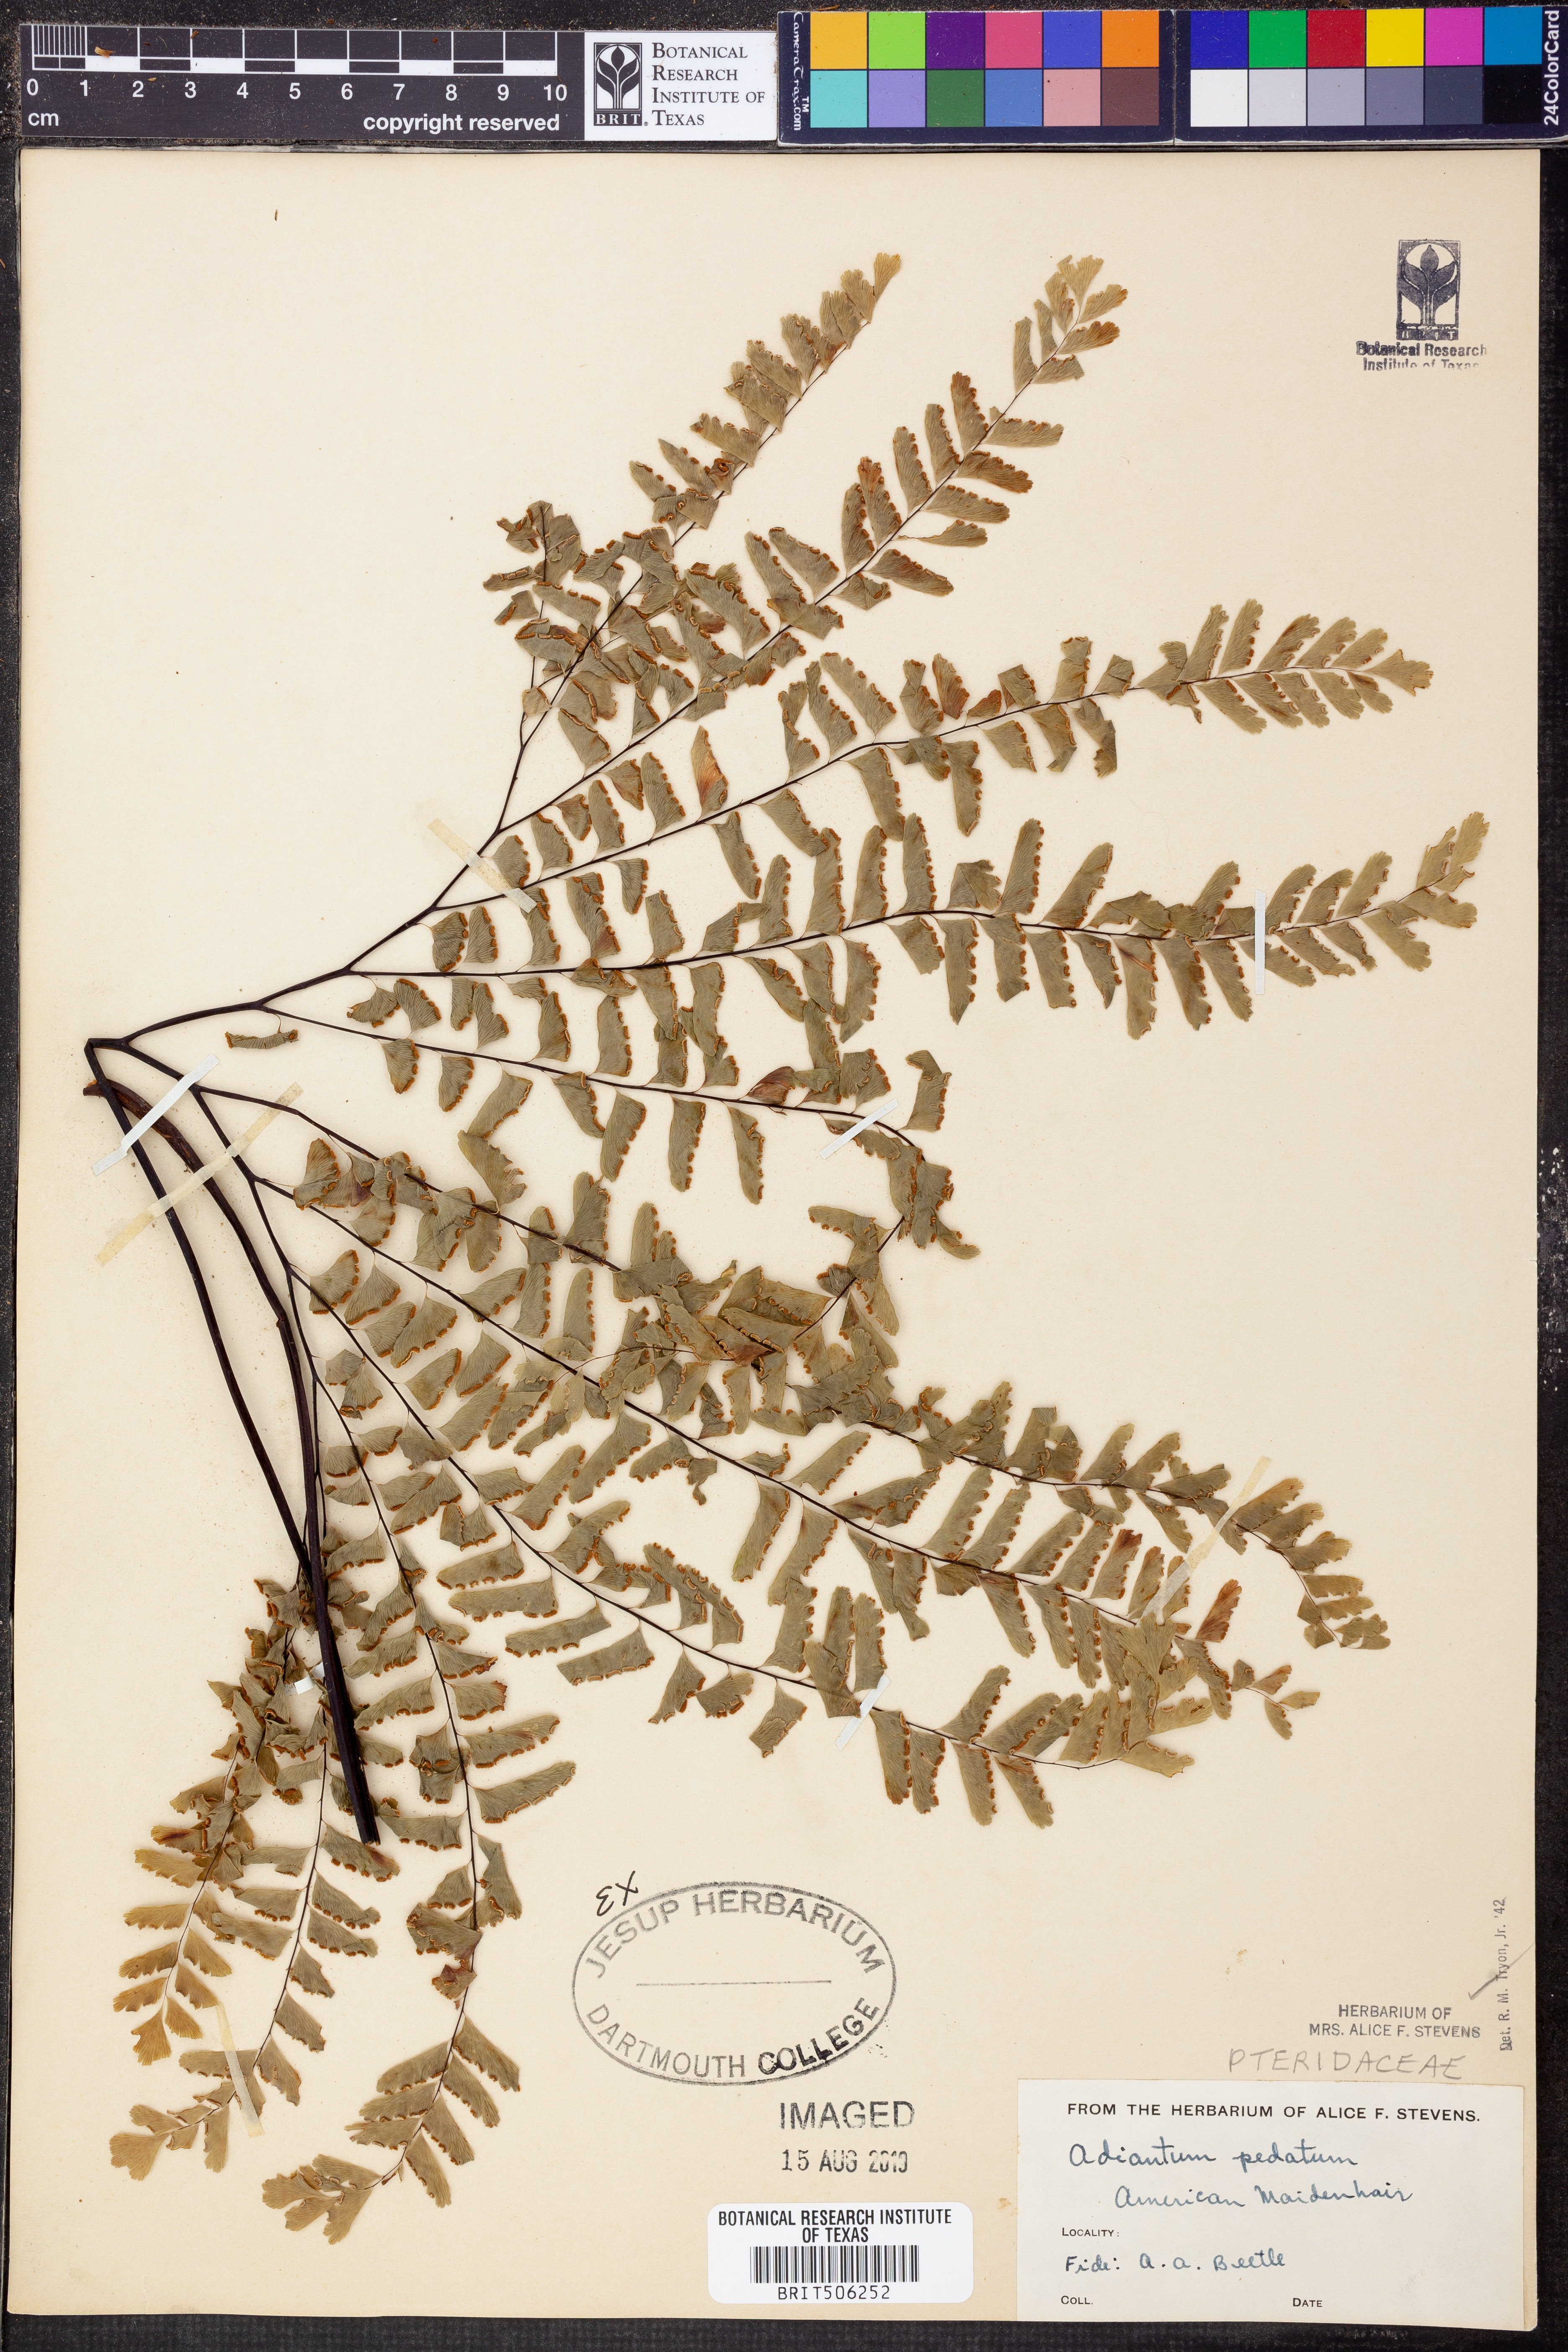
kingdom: Plantae
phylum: Tracheophyta
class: Polypodiopsida
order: Polypodiales
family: Pteridaceae
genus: Adiantum
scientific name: Adiantum pedatum
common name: Five-finger fern
